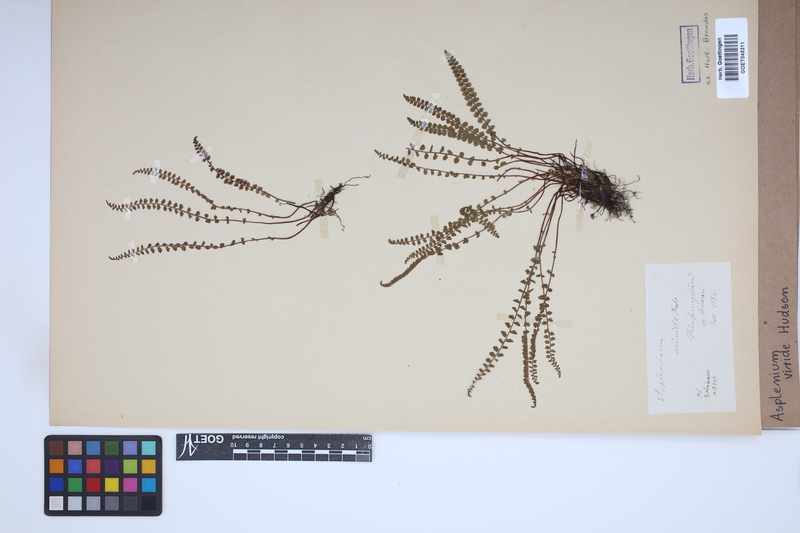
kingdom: Plantae
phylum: Tracheophyta
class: Polypodiopsida
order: Polypodiales
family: Aspleniaceae
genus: Asplenium
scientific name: Asplenium viride
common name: Green spleenwort
